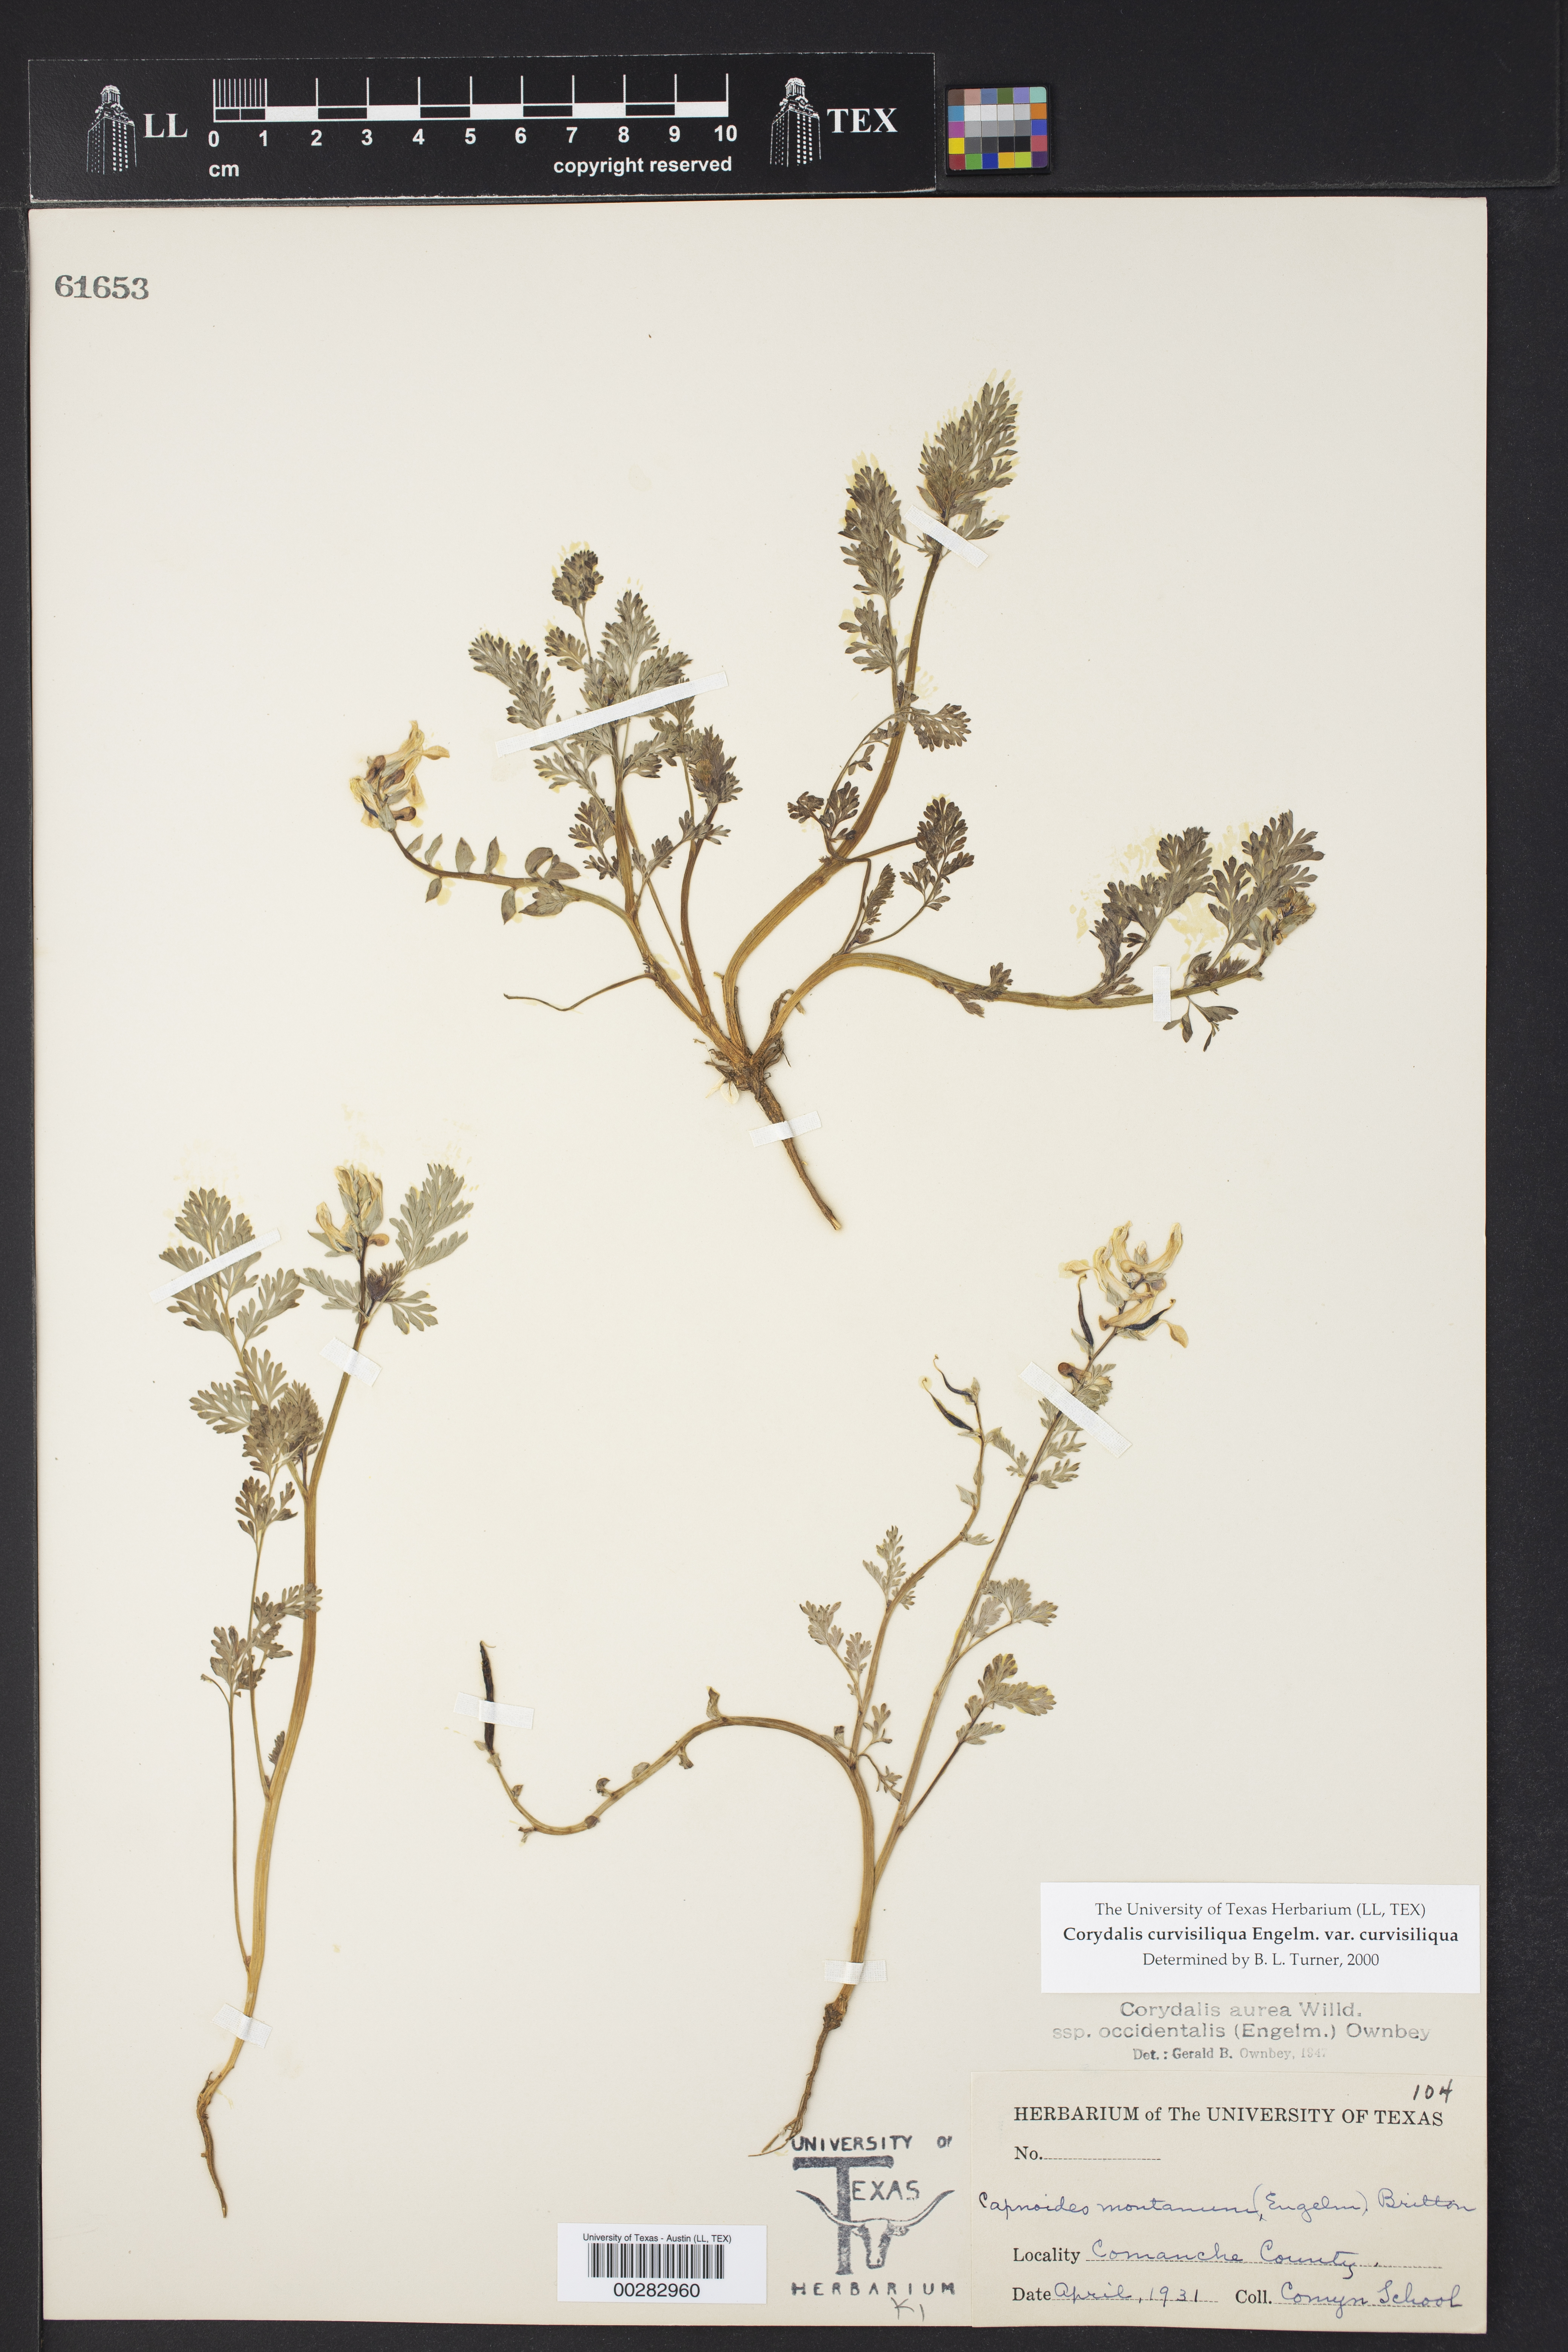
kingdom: Plantae
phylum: Tracheophyta
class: Magnoliopsida
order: Ranunculales
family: Papaveraceae
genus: Corydalis
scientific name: Corydalis curvisiliqua
